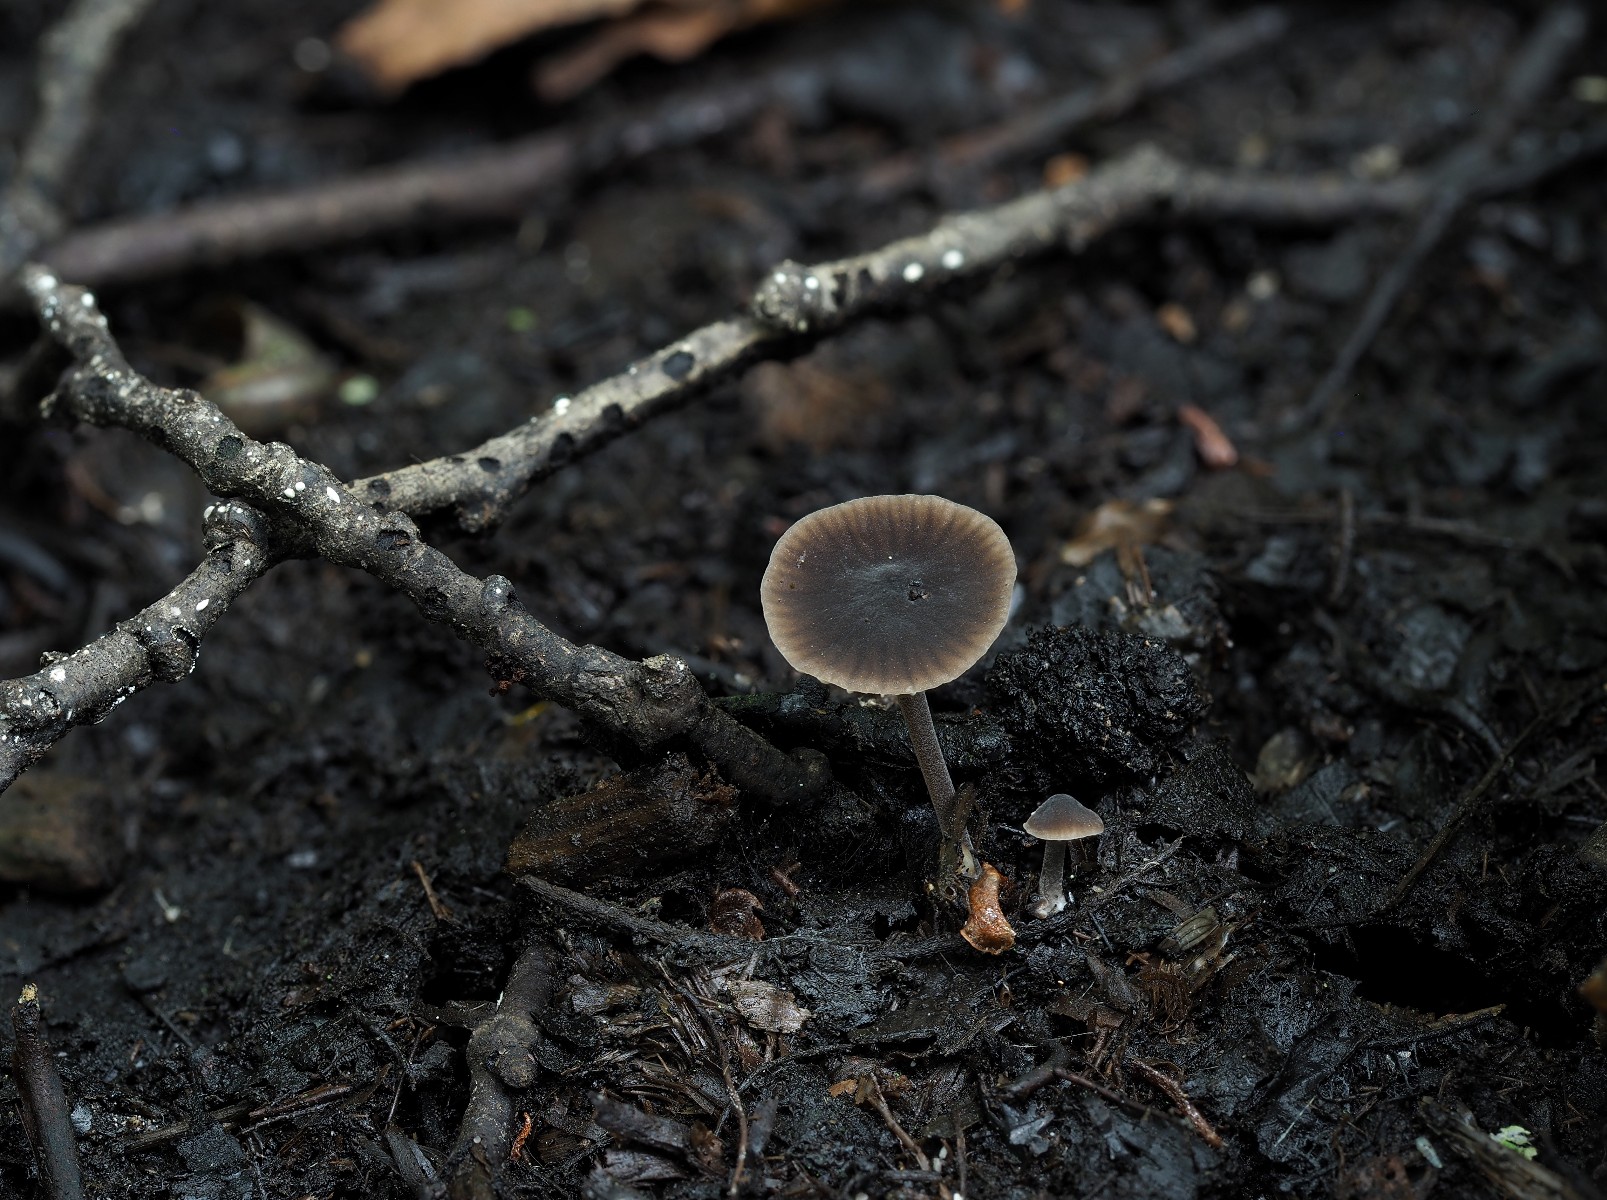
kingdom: Fungi
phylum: Basidiomycota
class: Agaricomycetes
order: Agaricales
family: Tricholomataceae
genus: Mycenella
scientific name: Mycenella lasiosperma
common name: stjernesporet dughat
